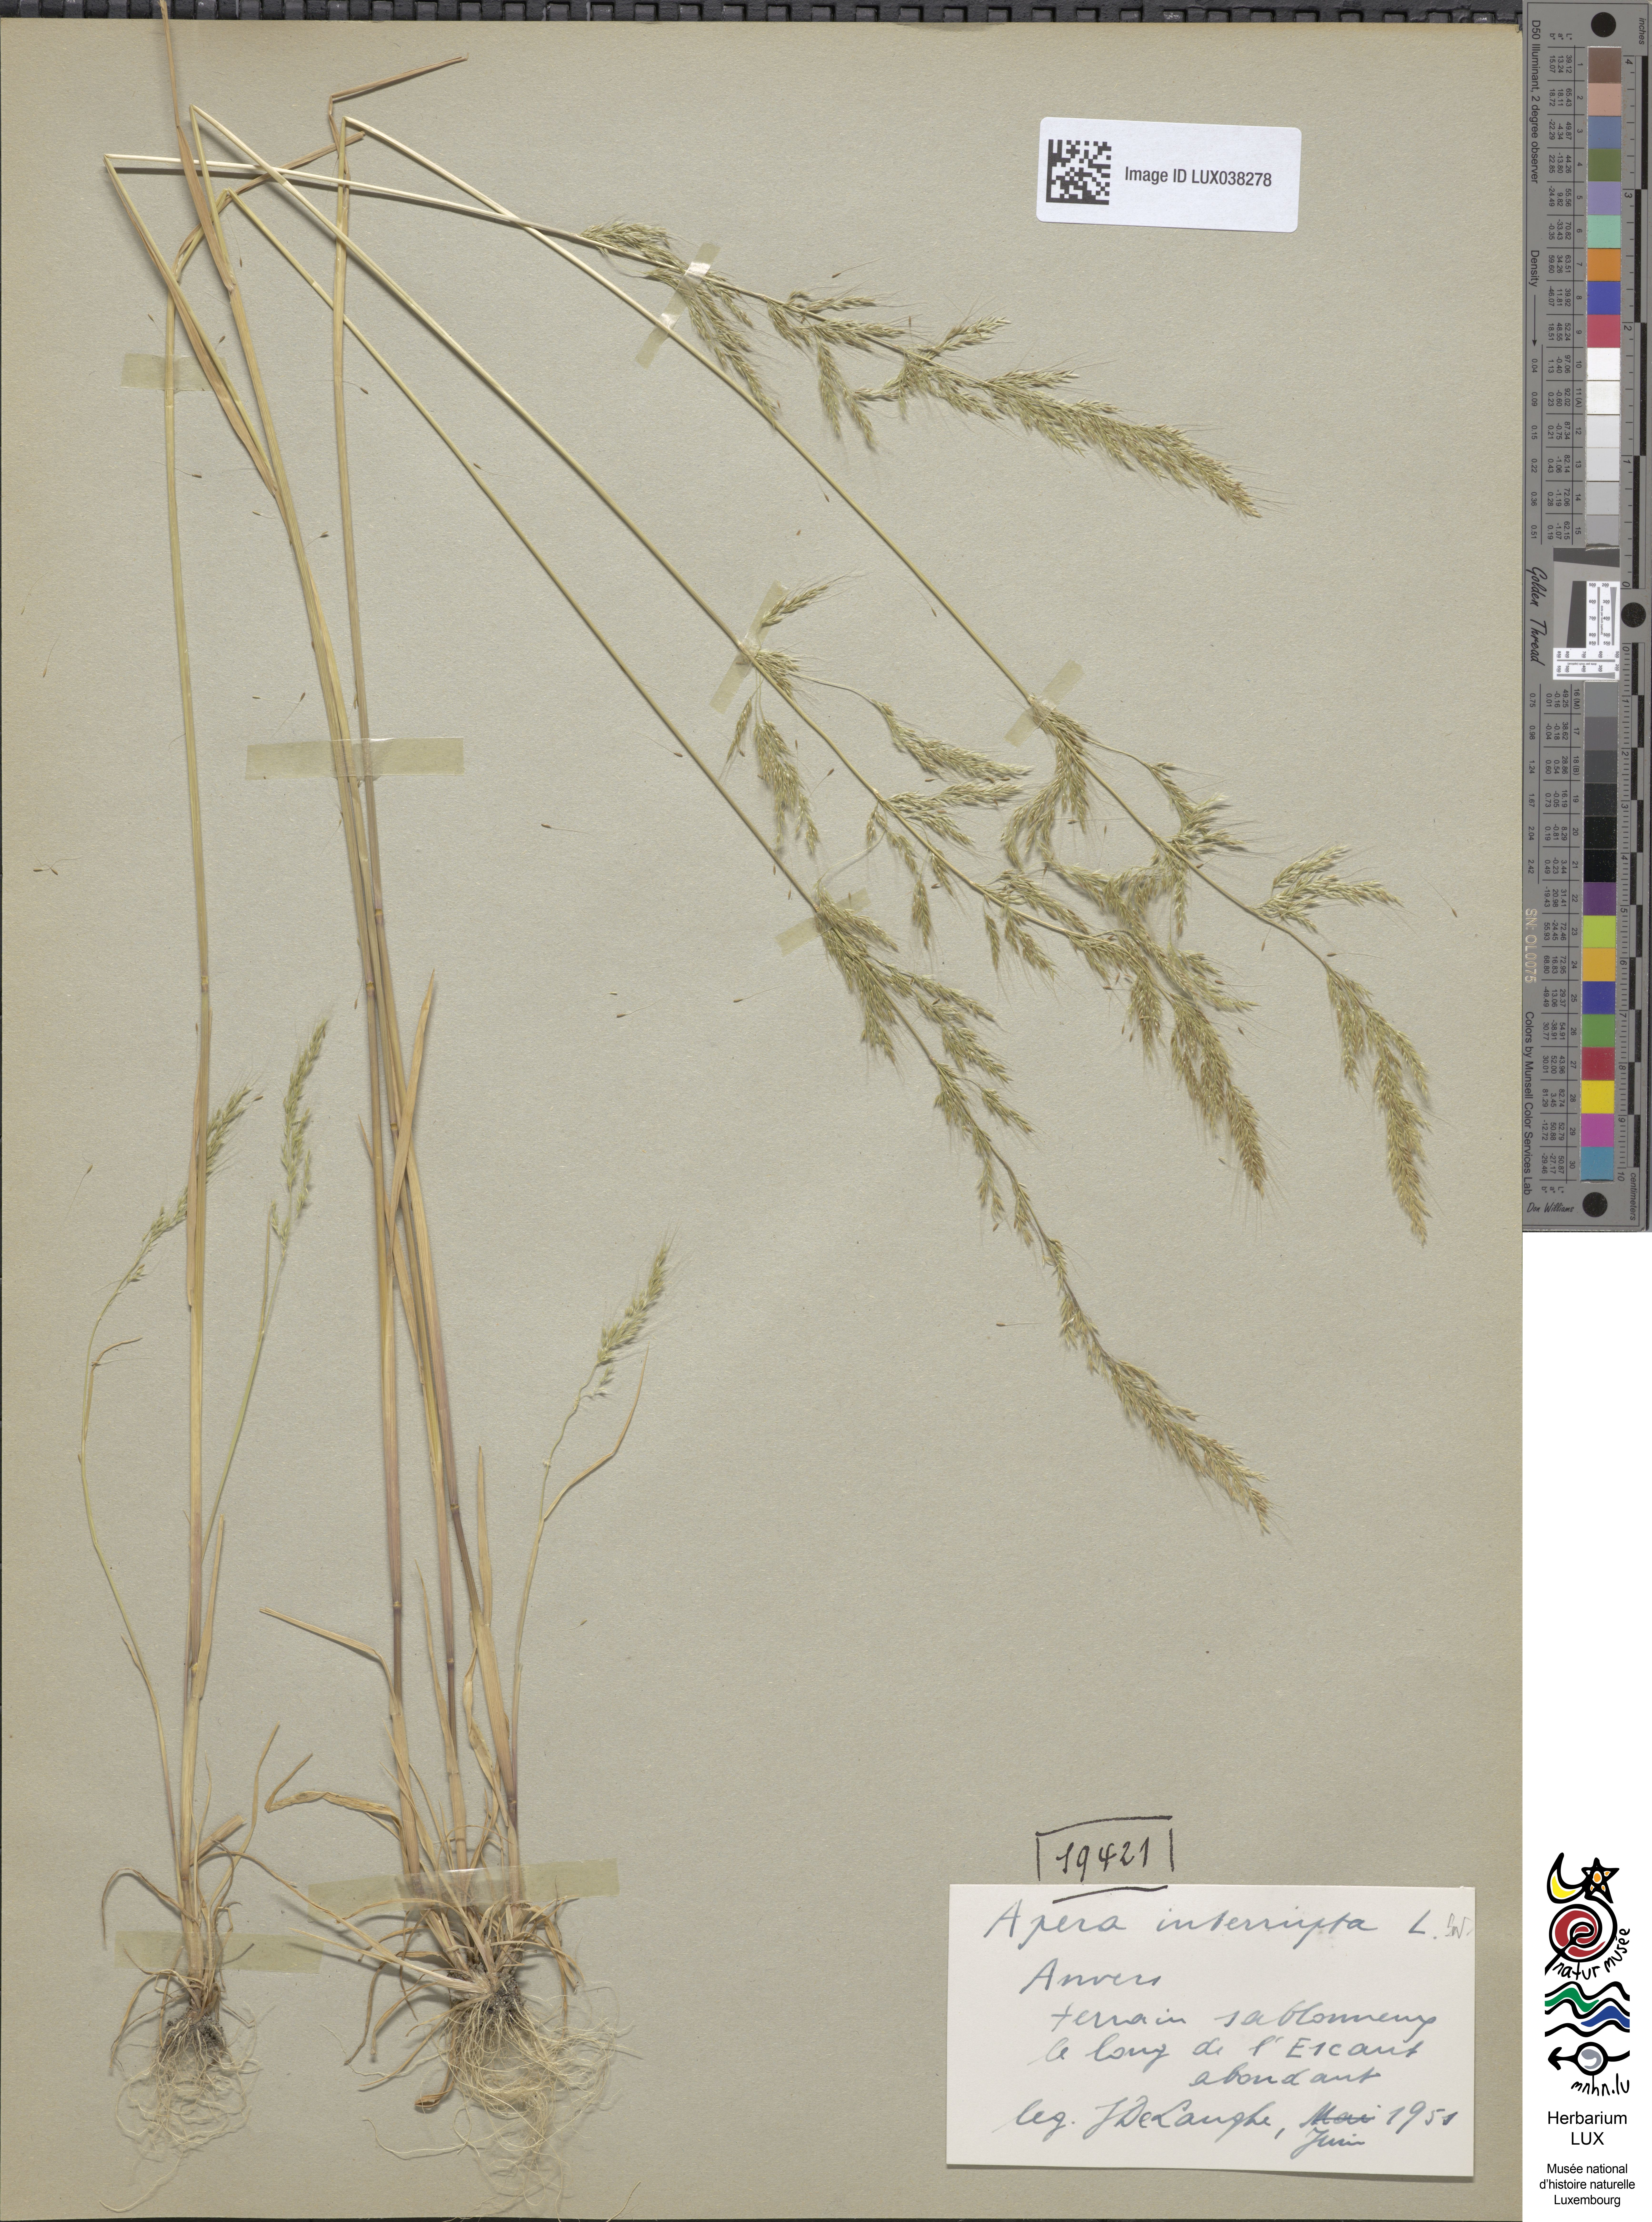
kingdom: Plantae
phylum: Tracheophyta
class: Liliopsida
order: Poales
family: Poaceae
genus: Apera
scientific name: Apera interrupta
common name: Dense silky-bent
